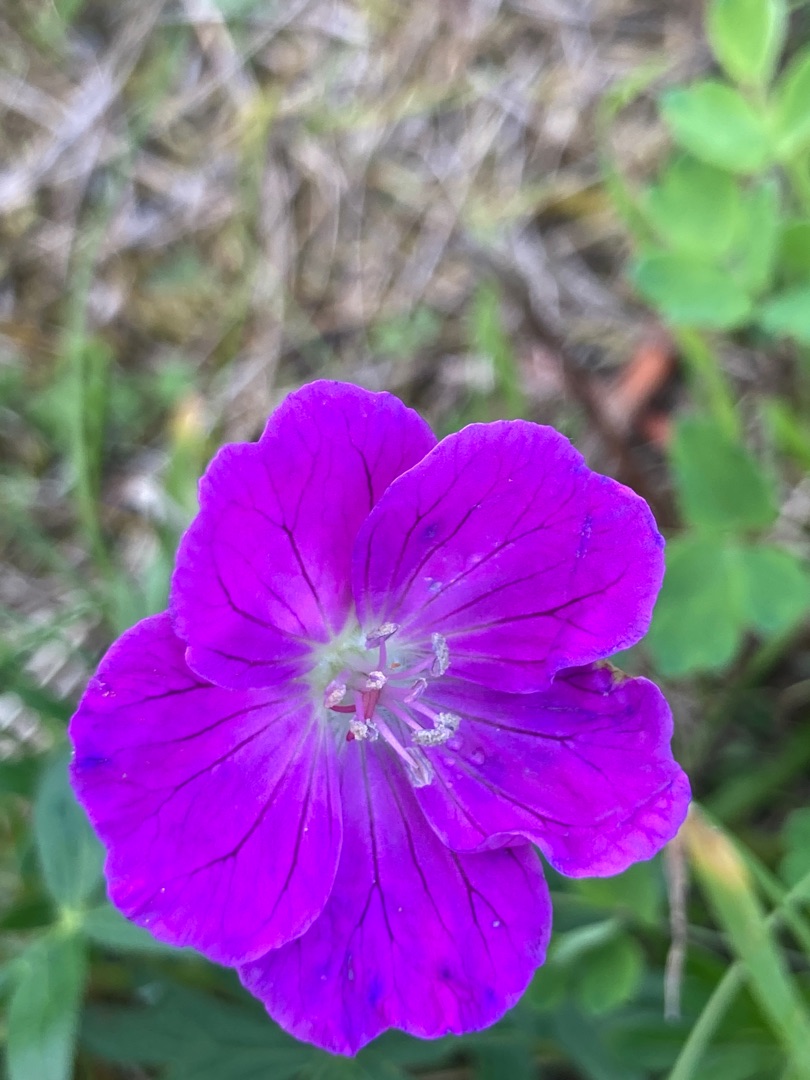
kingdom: Plantae
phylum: Tracheophyta
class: Magnoliopsida
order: Geraniales
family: Geraniaceae
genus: Geranium
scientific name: Geranium sanguineum
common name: Blodrød storkenæb
